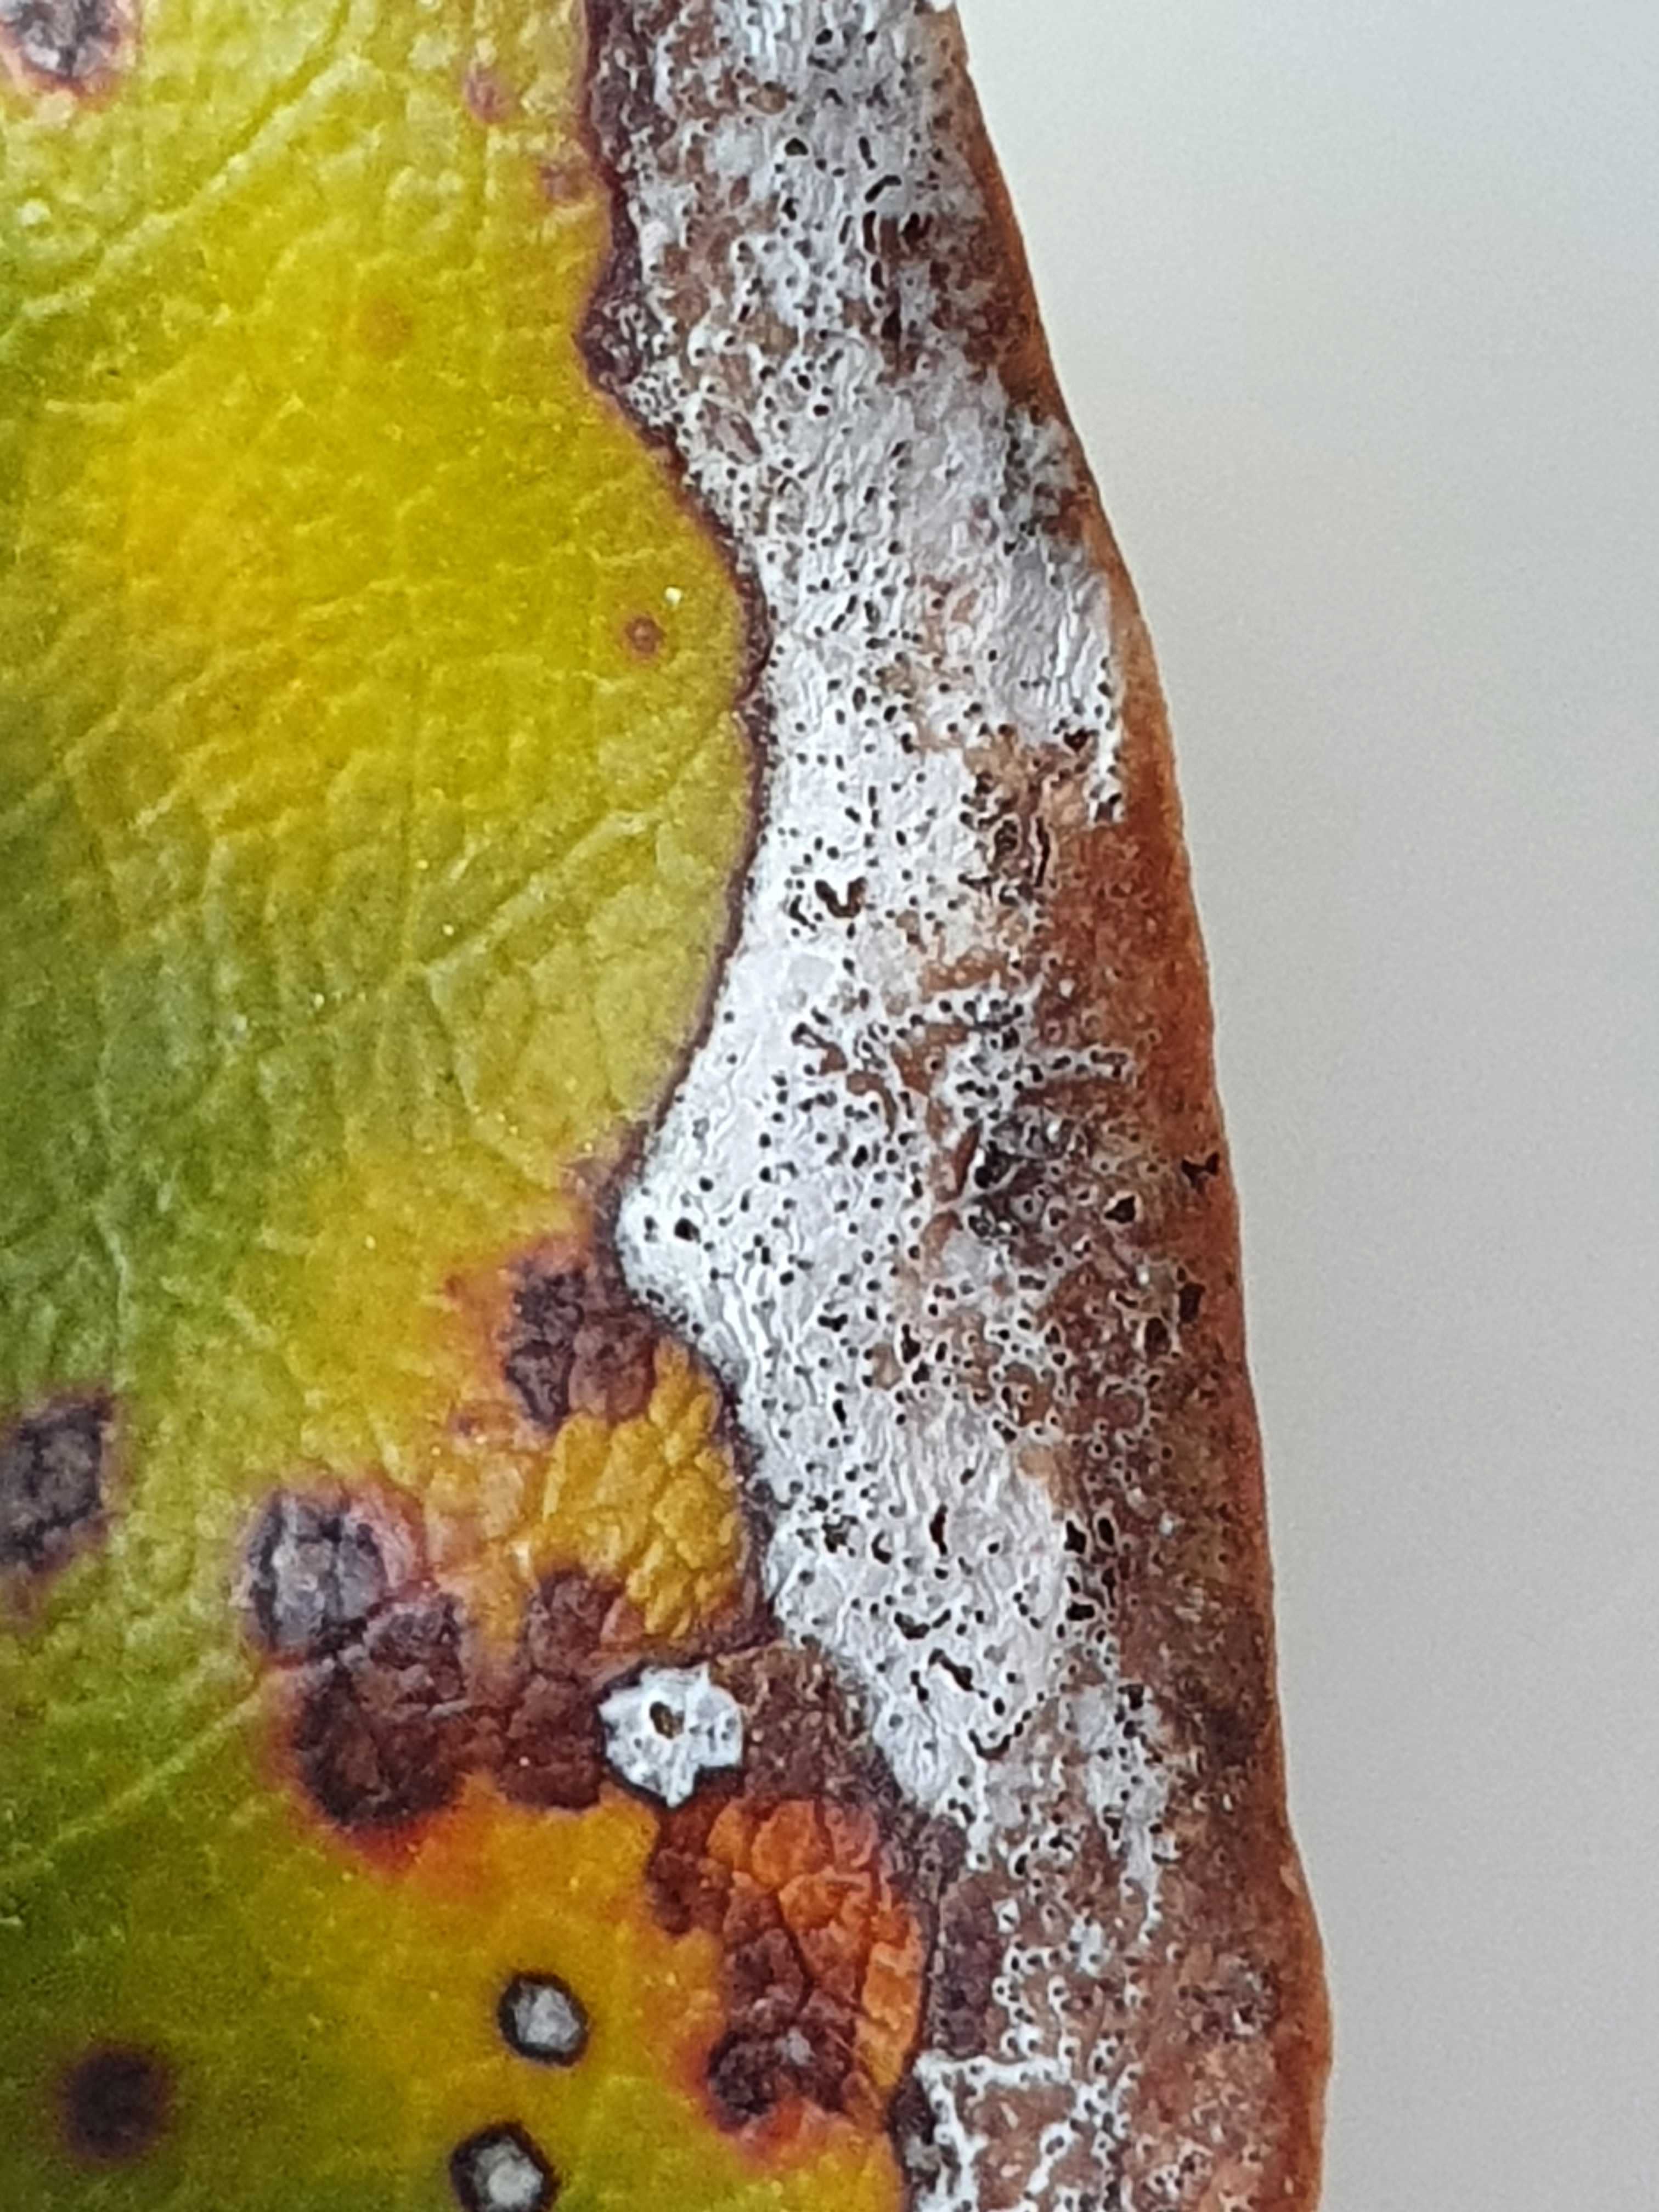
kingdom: Fungi
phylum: Ascomycota
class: Dothideomycetes
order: Mycosphaerellales
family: Mycosphaerellaceae
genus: Mycosphaerella
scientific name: Mycosphaerella rhododendri
